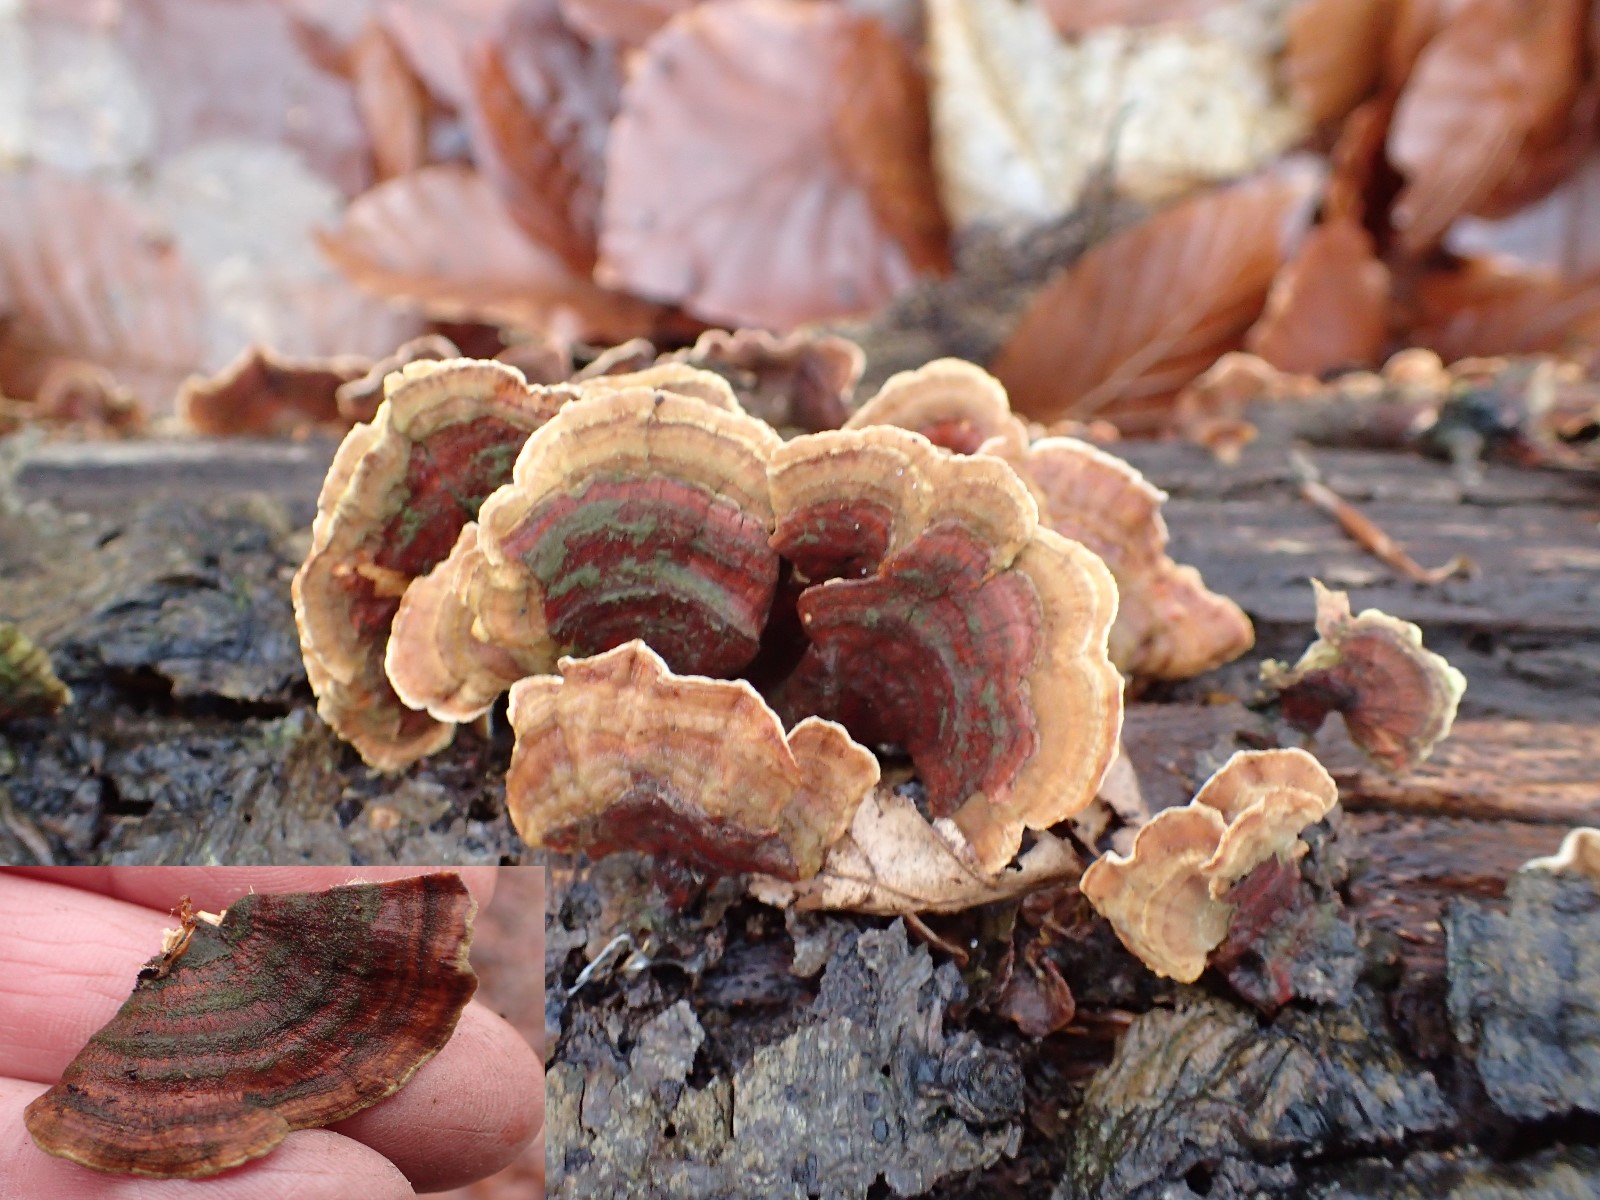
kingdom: Fungi
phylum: Basidiomycota
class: Agaricomycetes
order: Russulales
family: Stereaceae
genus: Stereum
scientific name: Stereum subtomentosum
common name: smuk lædersvamp
